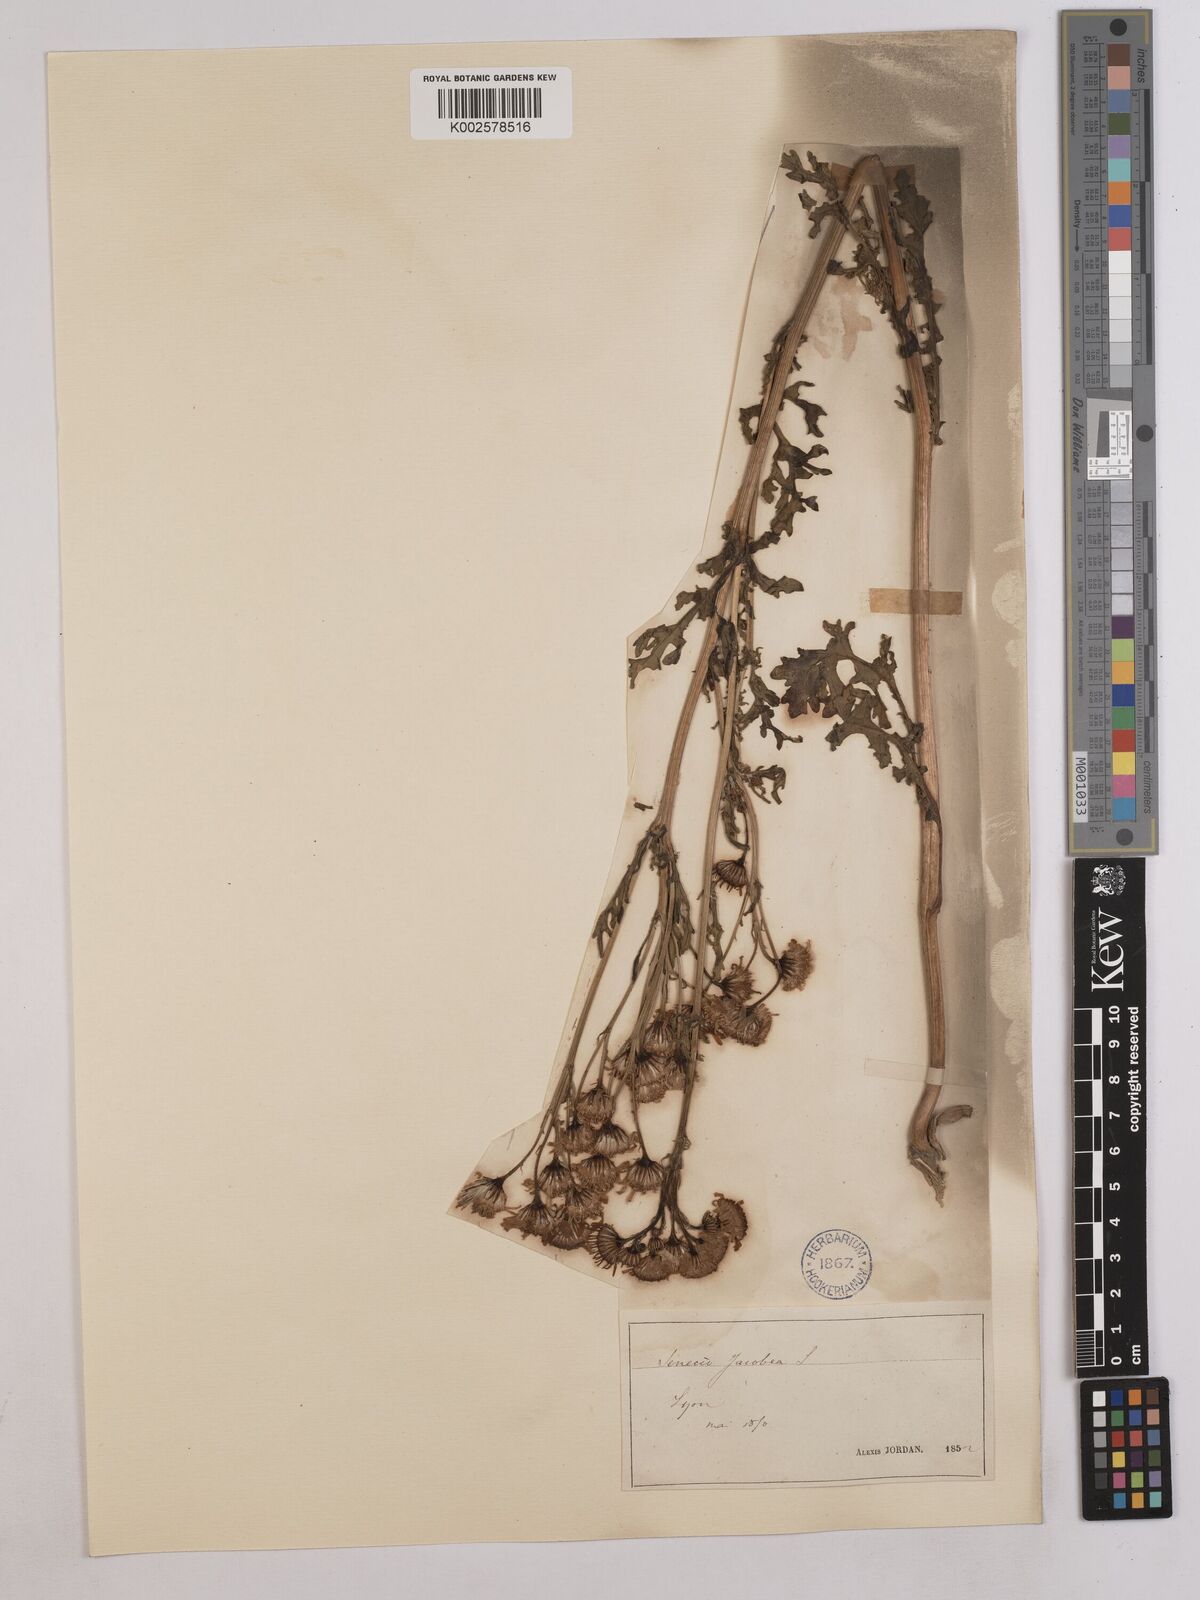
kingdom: Plantae
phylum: Tracheophyta
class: Magnoliopsida
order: Asterales
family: Asteraceae
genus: Jacobaea
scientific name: Jacobaea vulgaris
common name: Stinking willie
